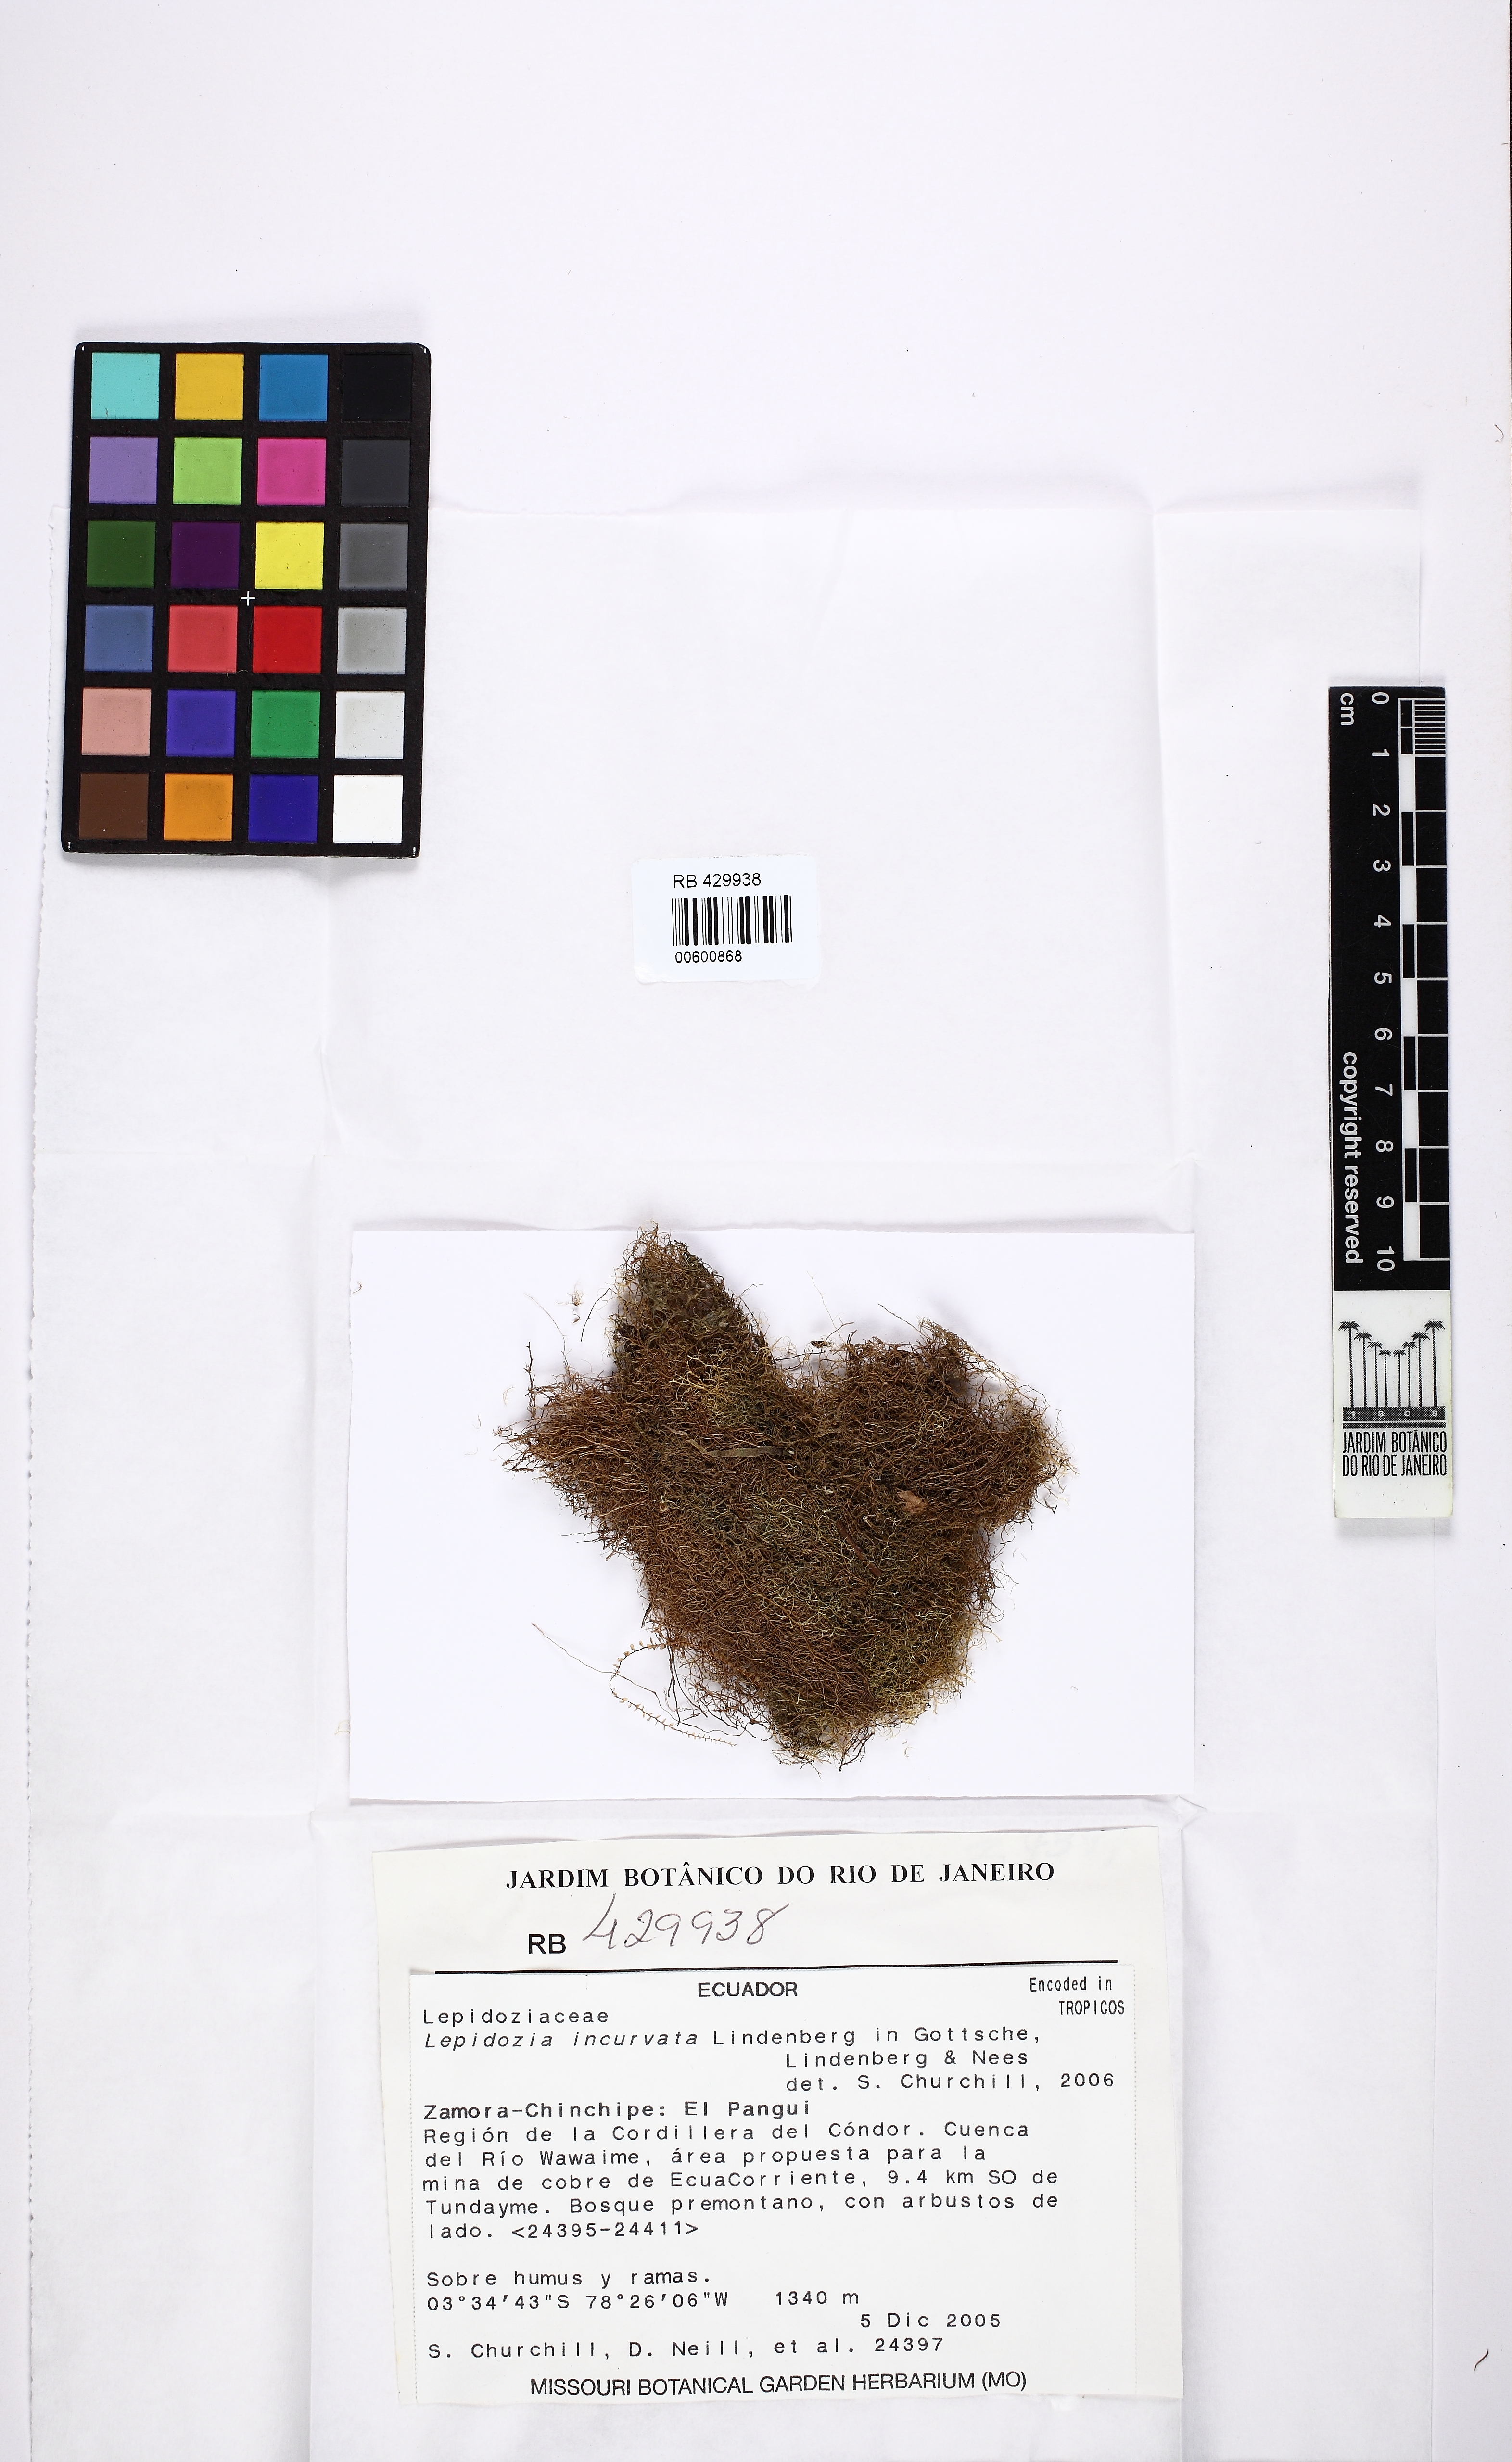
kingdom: Plantae
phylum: Marchantiophyta
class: Jungermanniopsida
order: Jungermanniales
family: Lepidoziaceae
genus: Lepidozia
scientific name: Lepidozia patens
